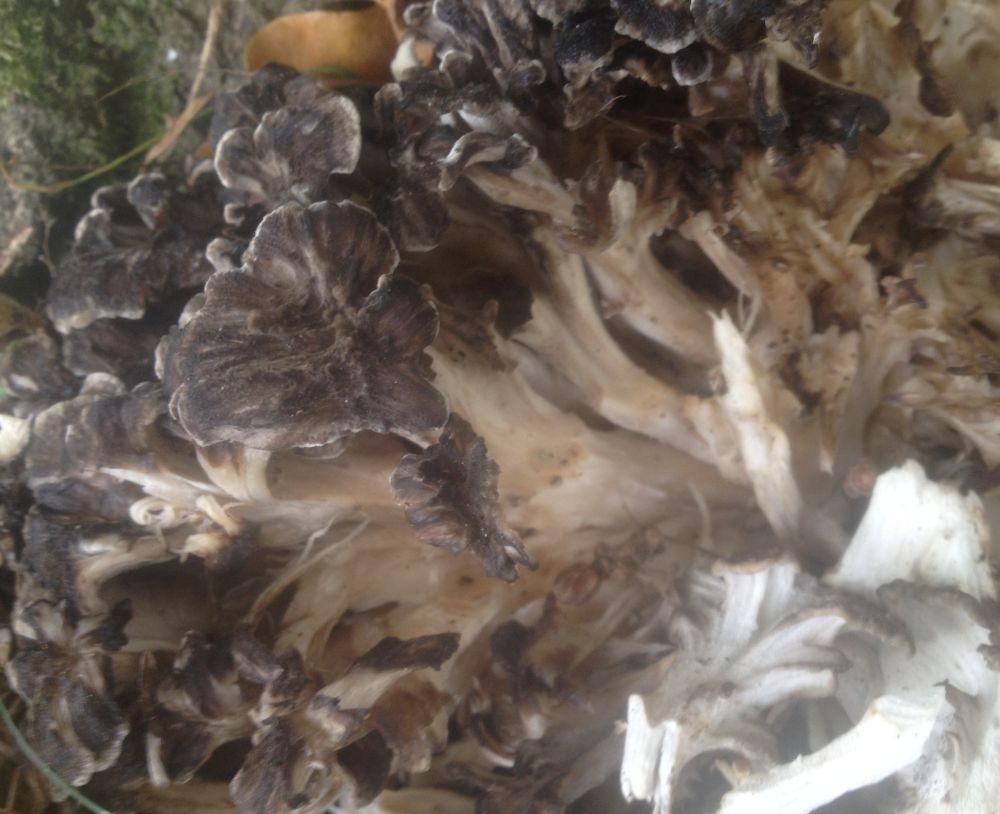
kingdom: Fungi
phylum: Basidiomycota
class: Agaricomycetes
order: Polyporales
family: Grifolaceae
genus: Grifola
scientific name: Grifola frondosa
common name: tueporesvamp
